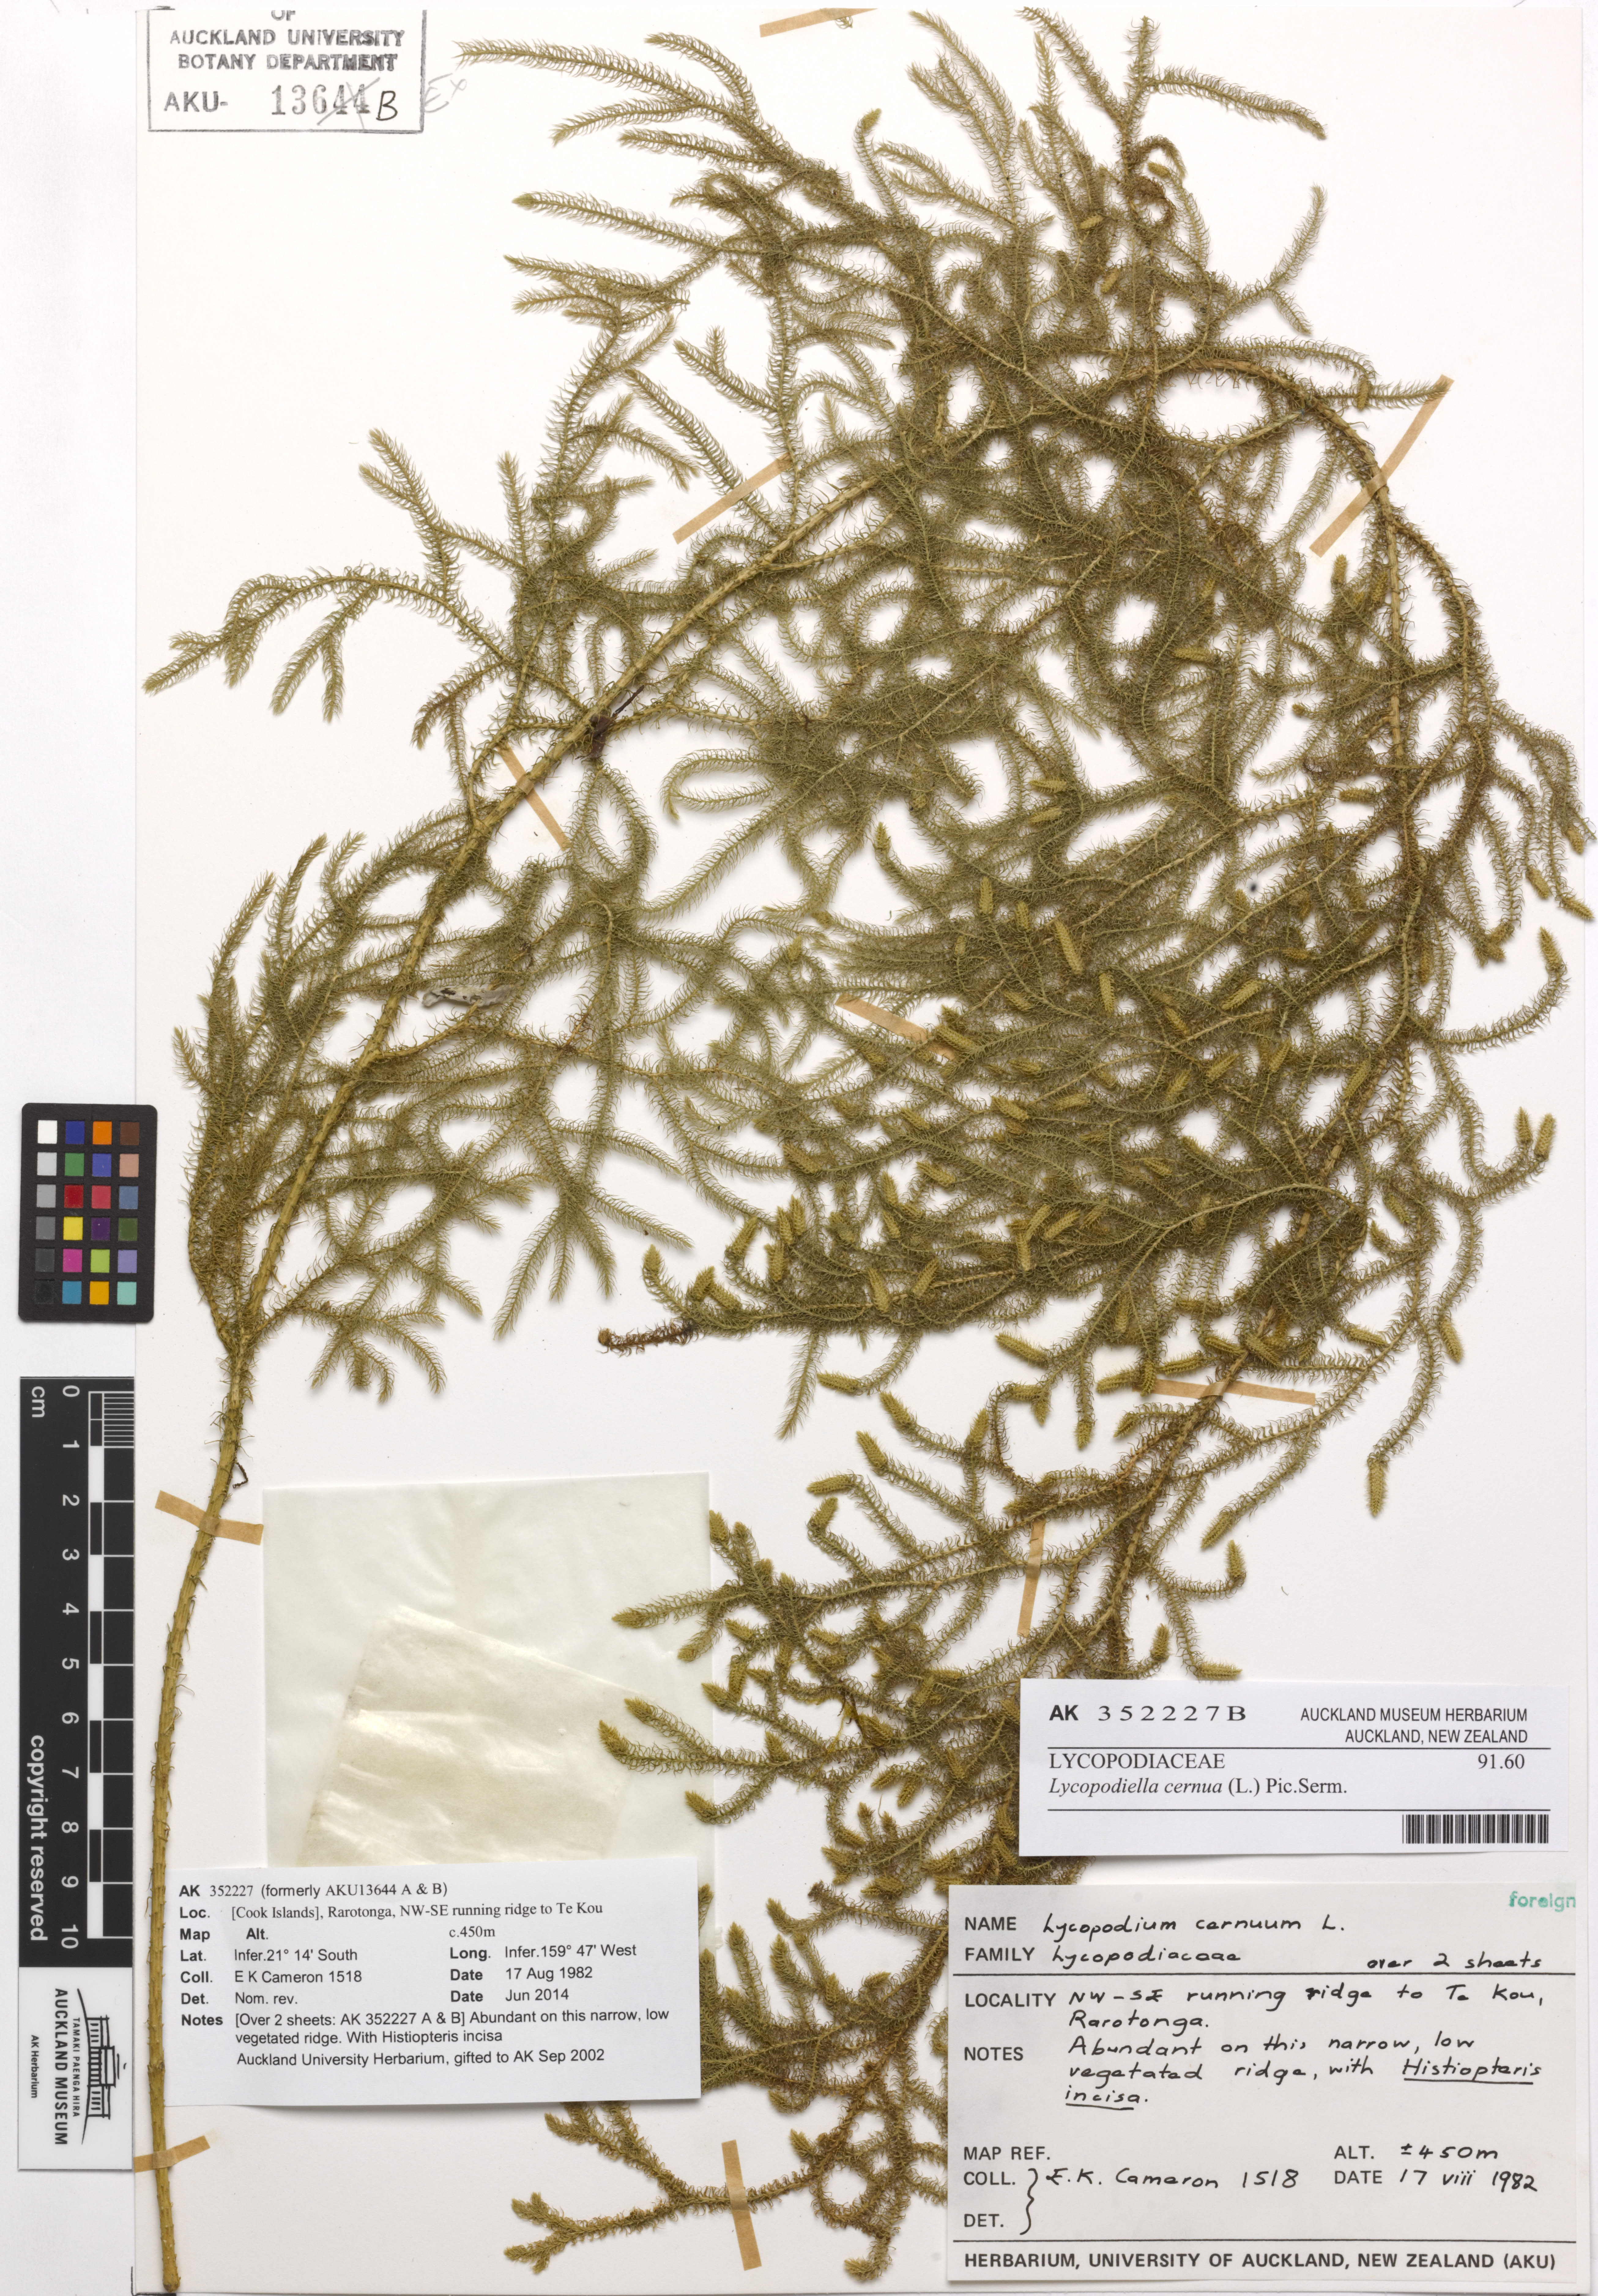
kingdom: Plantae
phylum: Tracheophyta
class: Lycopodiopsida
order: Lycopodiales
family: Lycopodiaceae
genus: Palhinhaea
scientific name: Palhinhaea cernua
